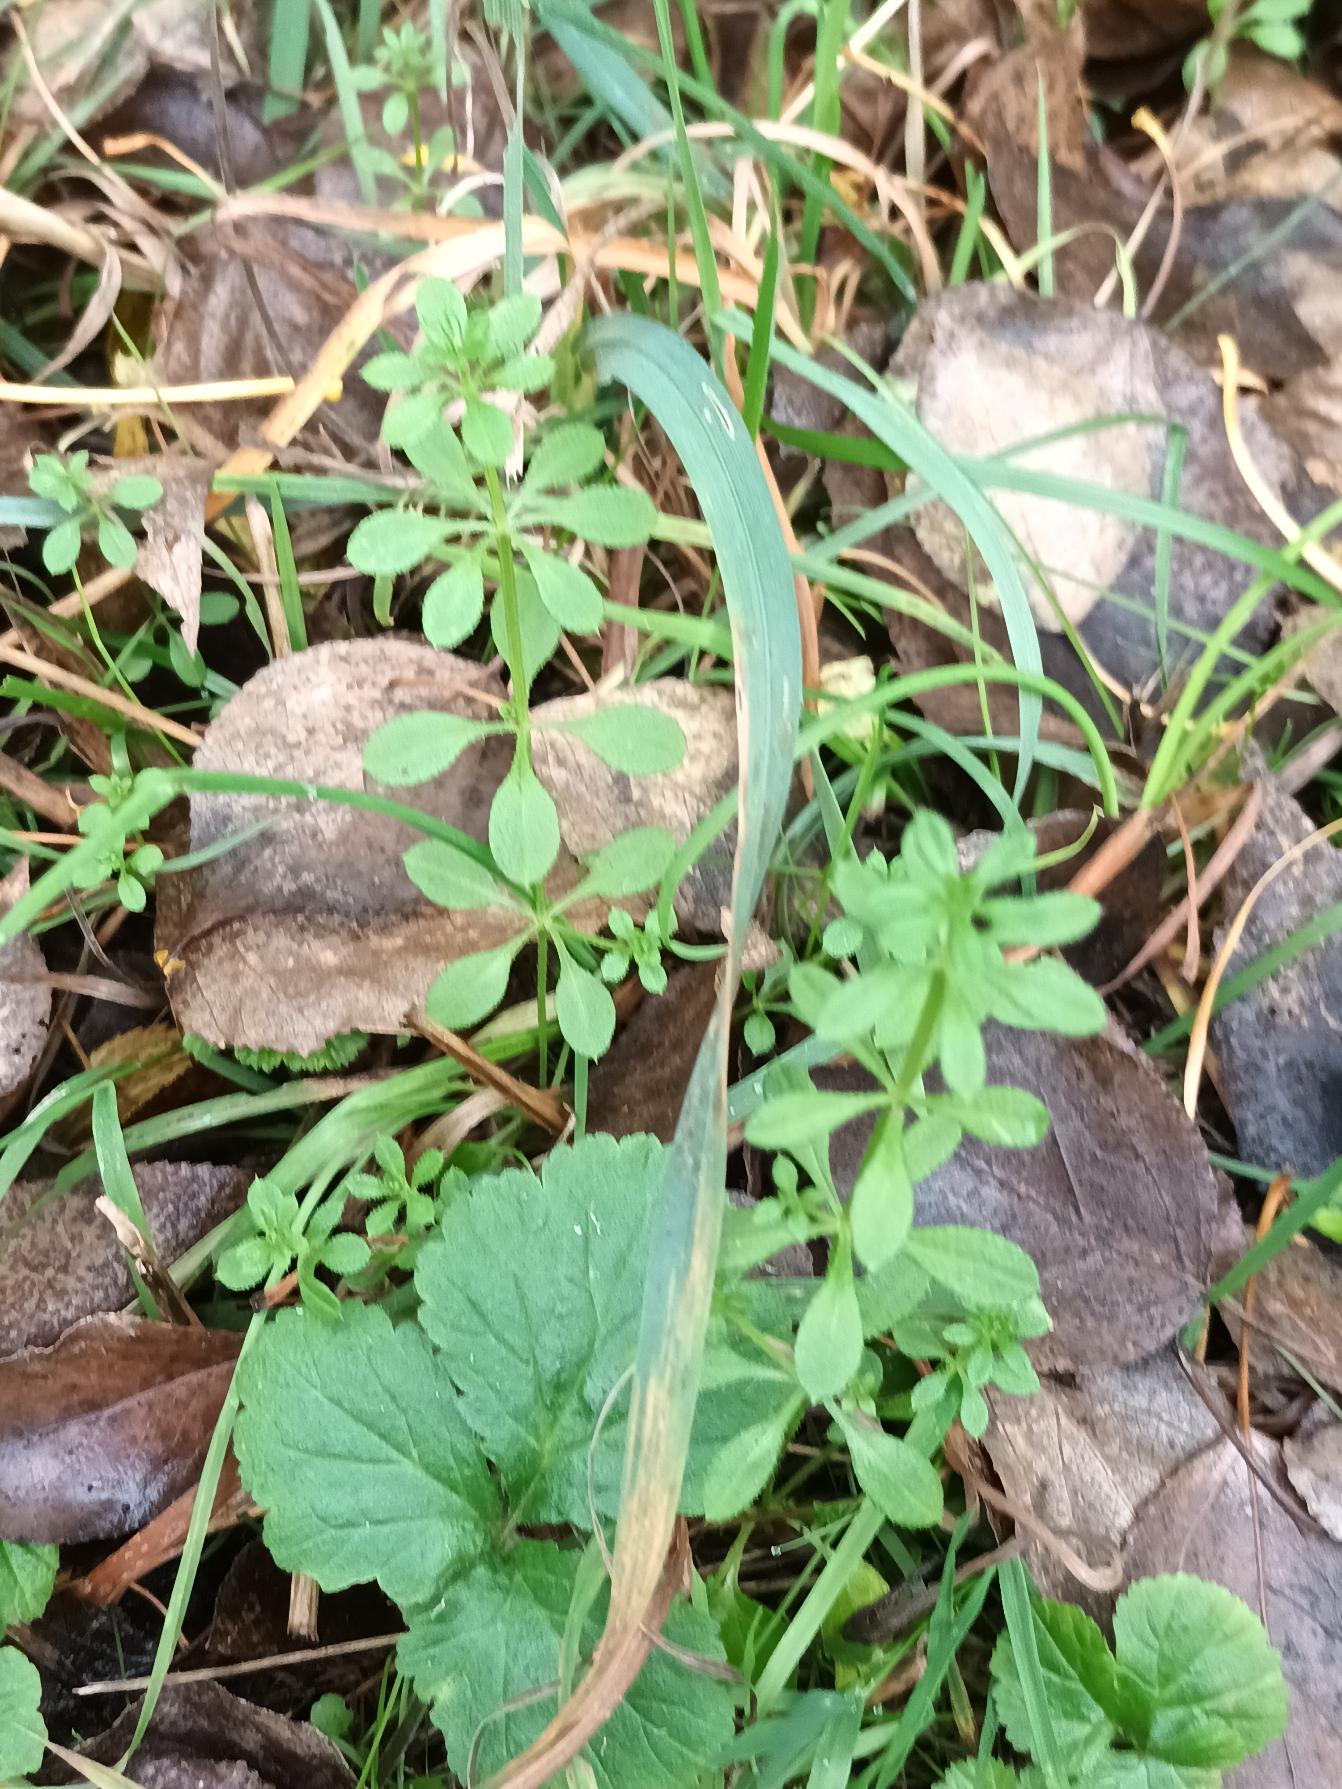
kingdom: Plantae
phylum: Tracheophyta
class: Magnoliopsida
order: Gentianales
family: Rubiaceae
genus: Galium
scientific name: Galium aparine
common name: Burre-snerre
